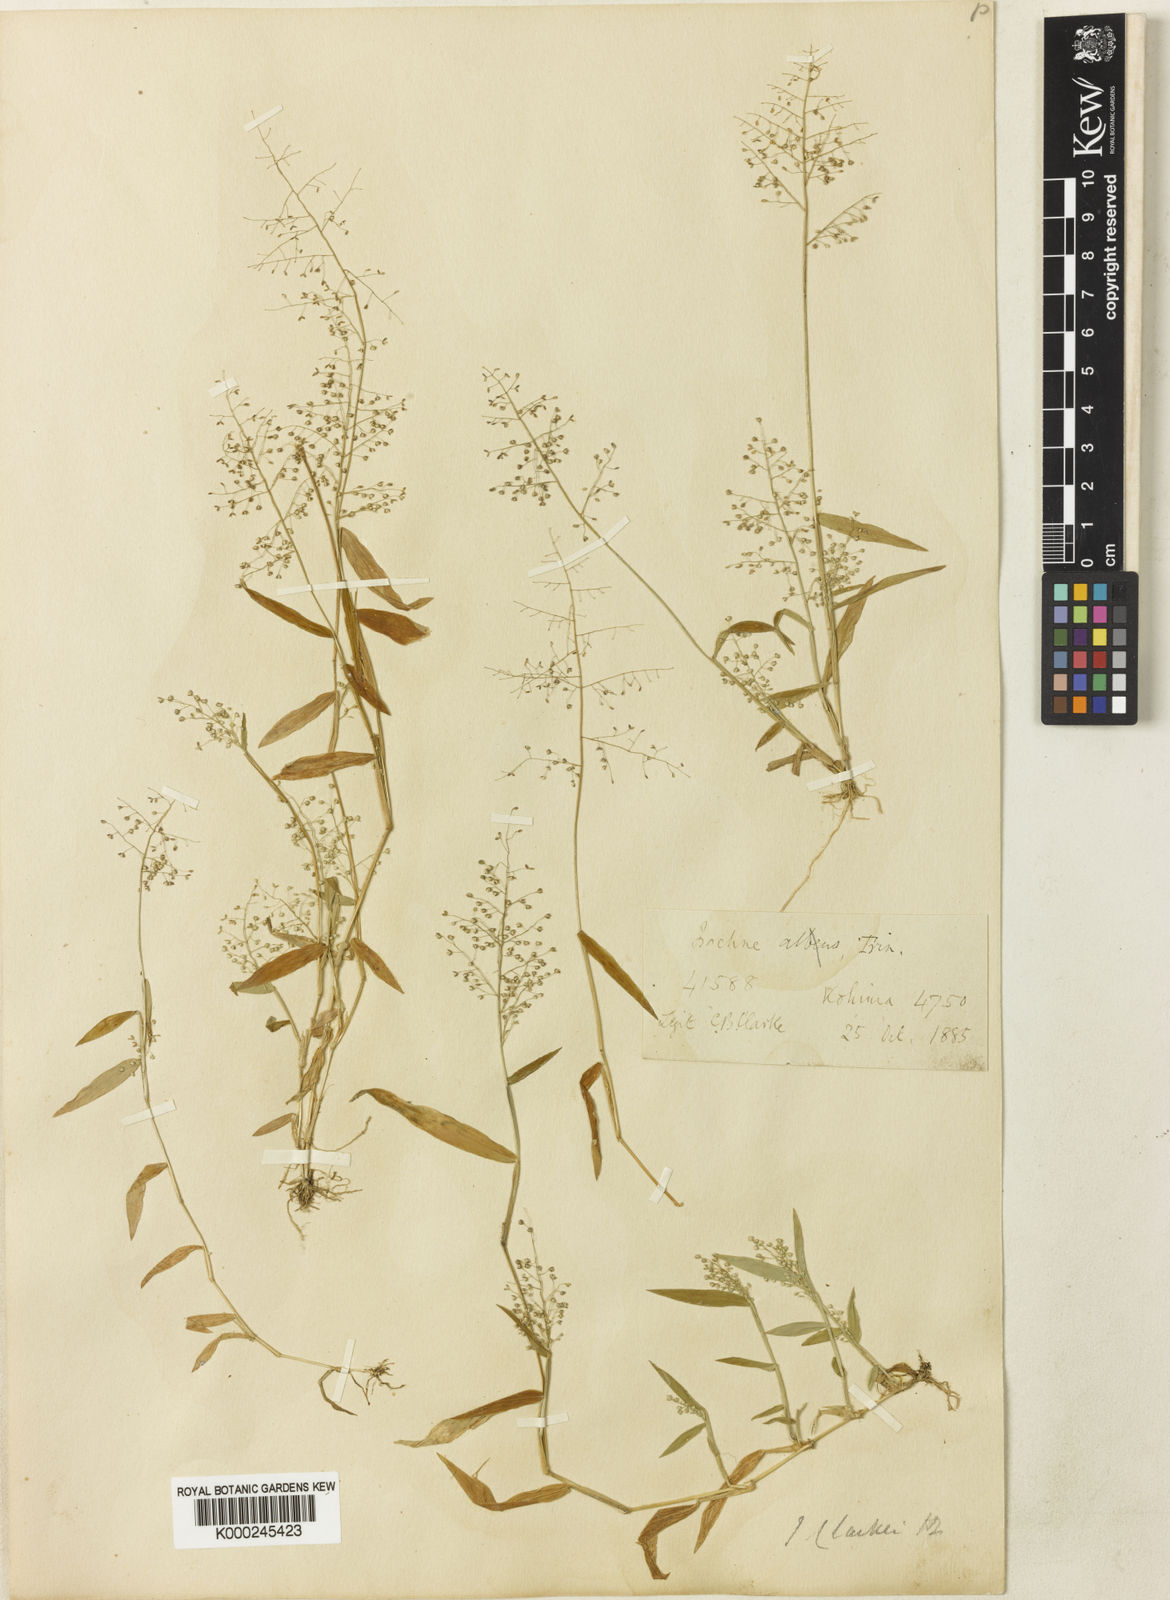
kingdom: Plantae
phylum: Tracheophyta
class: Liliopsida
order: Poales
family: Poaceae
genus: Isachne
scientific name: Isachne clarkei
